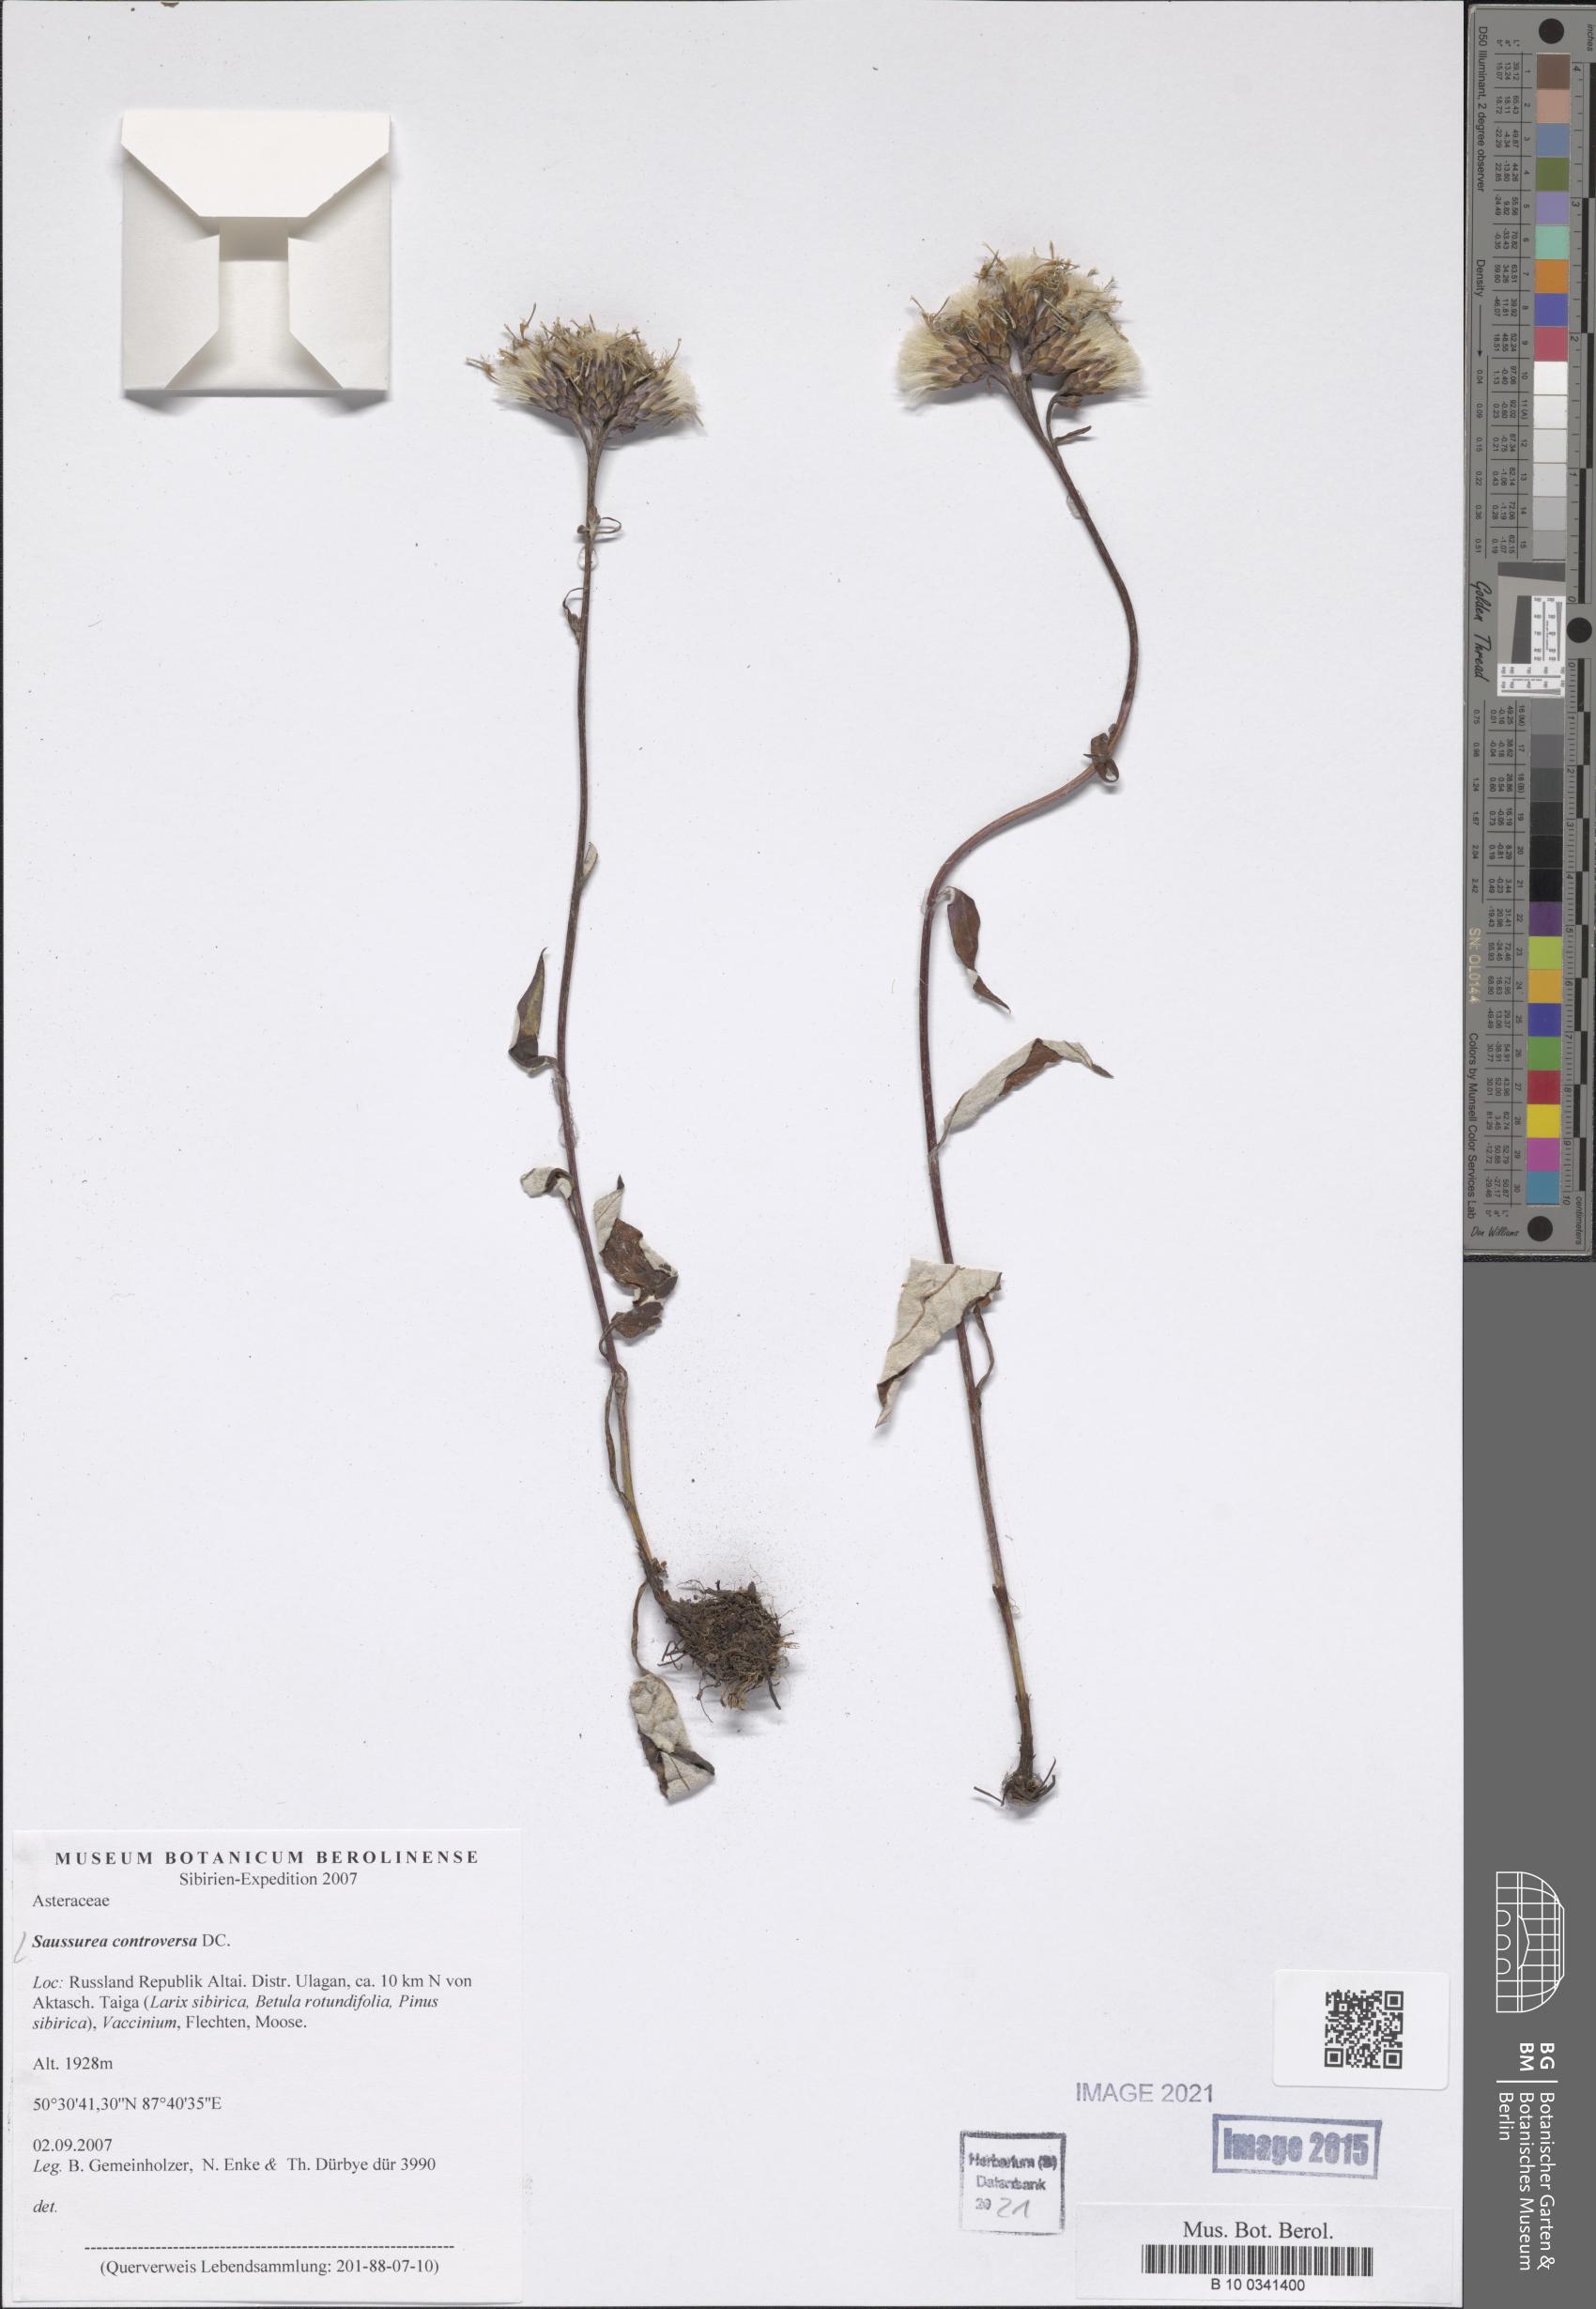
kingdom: Plantae
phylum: Tracheophyta
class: Magnoliopsida
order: Asterales
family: Asteraceae
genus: Saussurea
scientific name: Saussurea controversa
